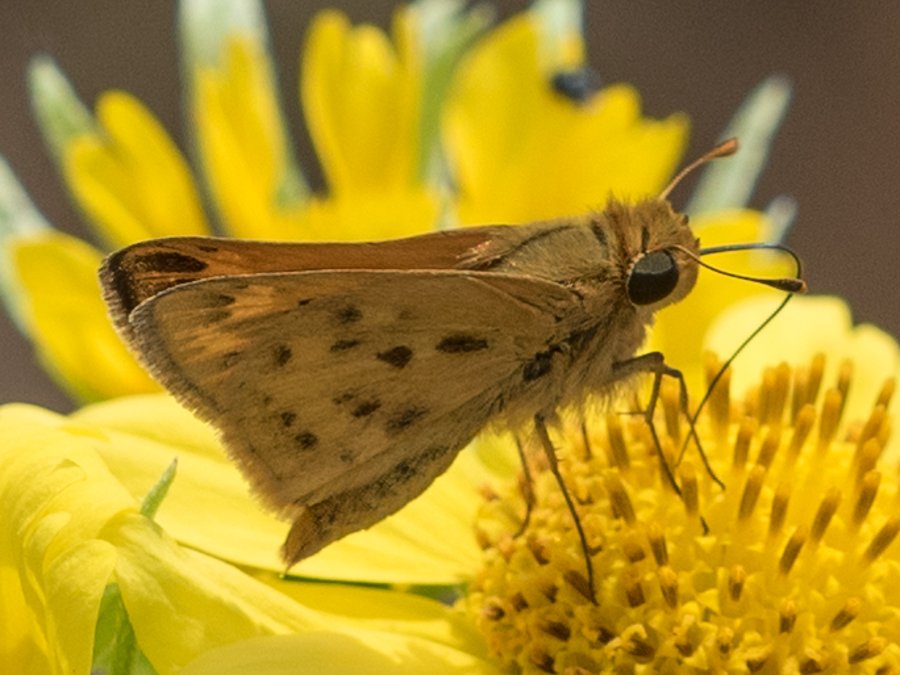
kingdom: Animalia
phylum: Arthropoda
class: Insecta
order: Lepidoptera
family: Hesperiidae
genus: Hylephila
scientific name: Hylephila phyleus
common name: Fiery Skipper
